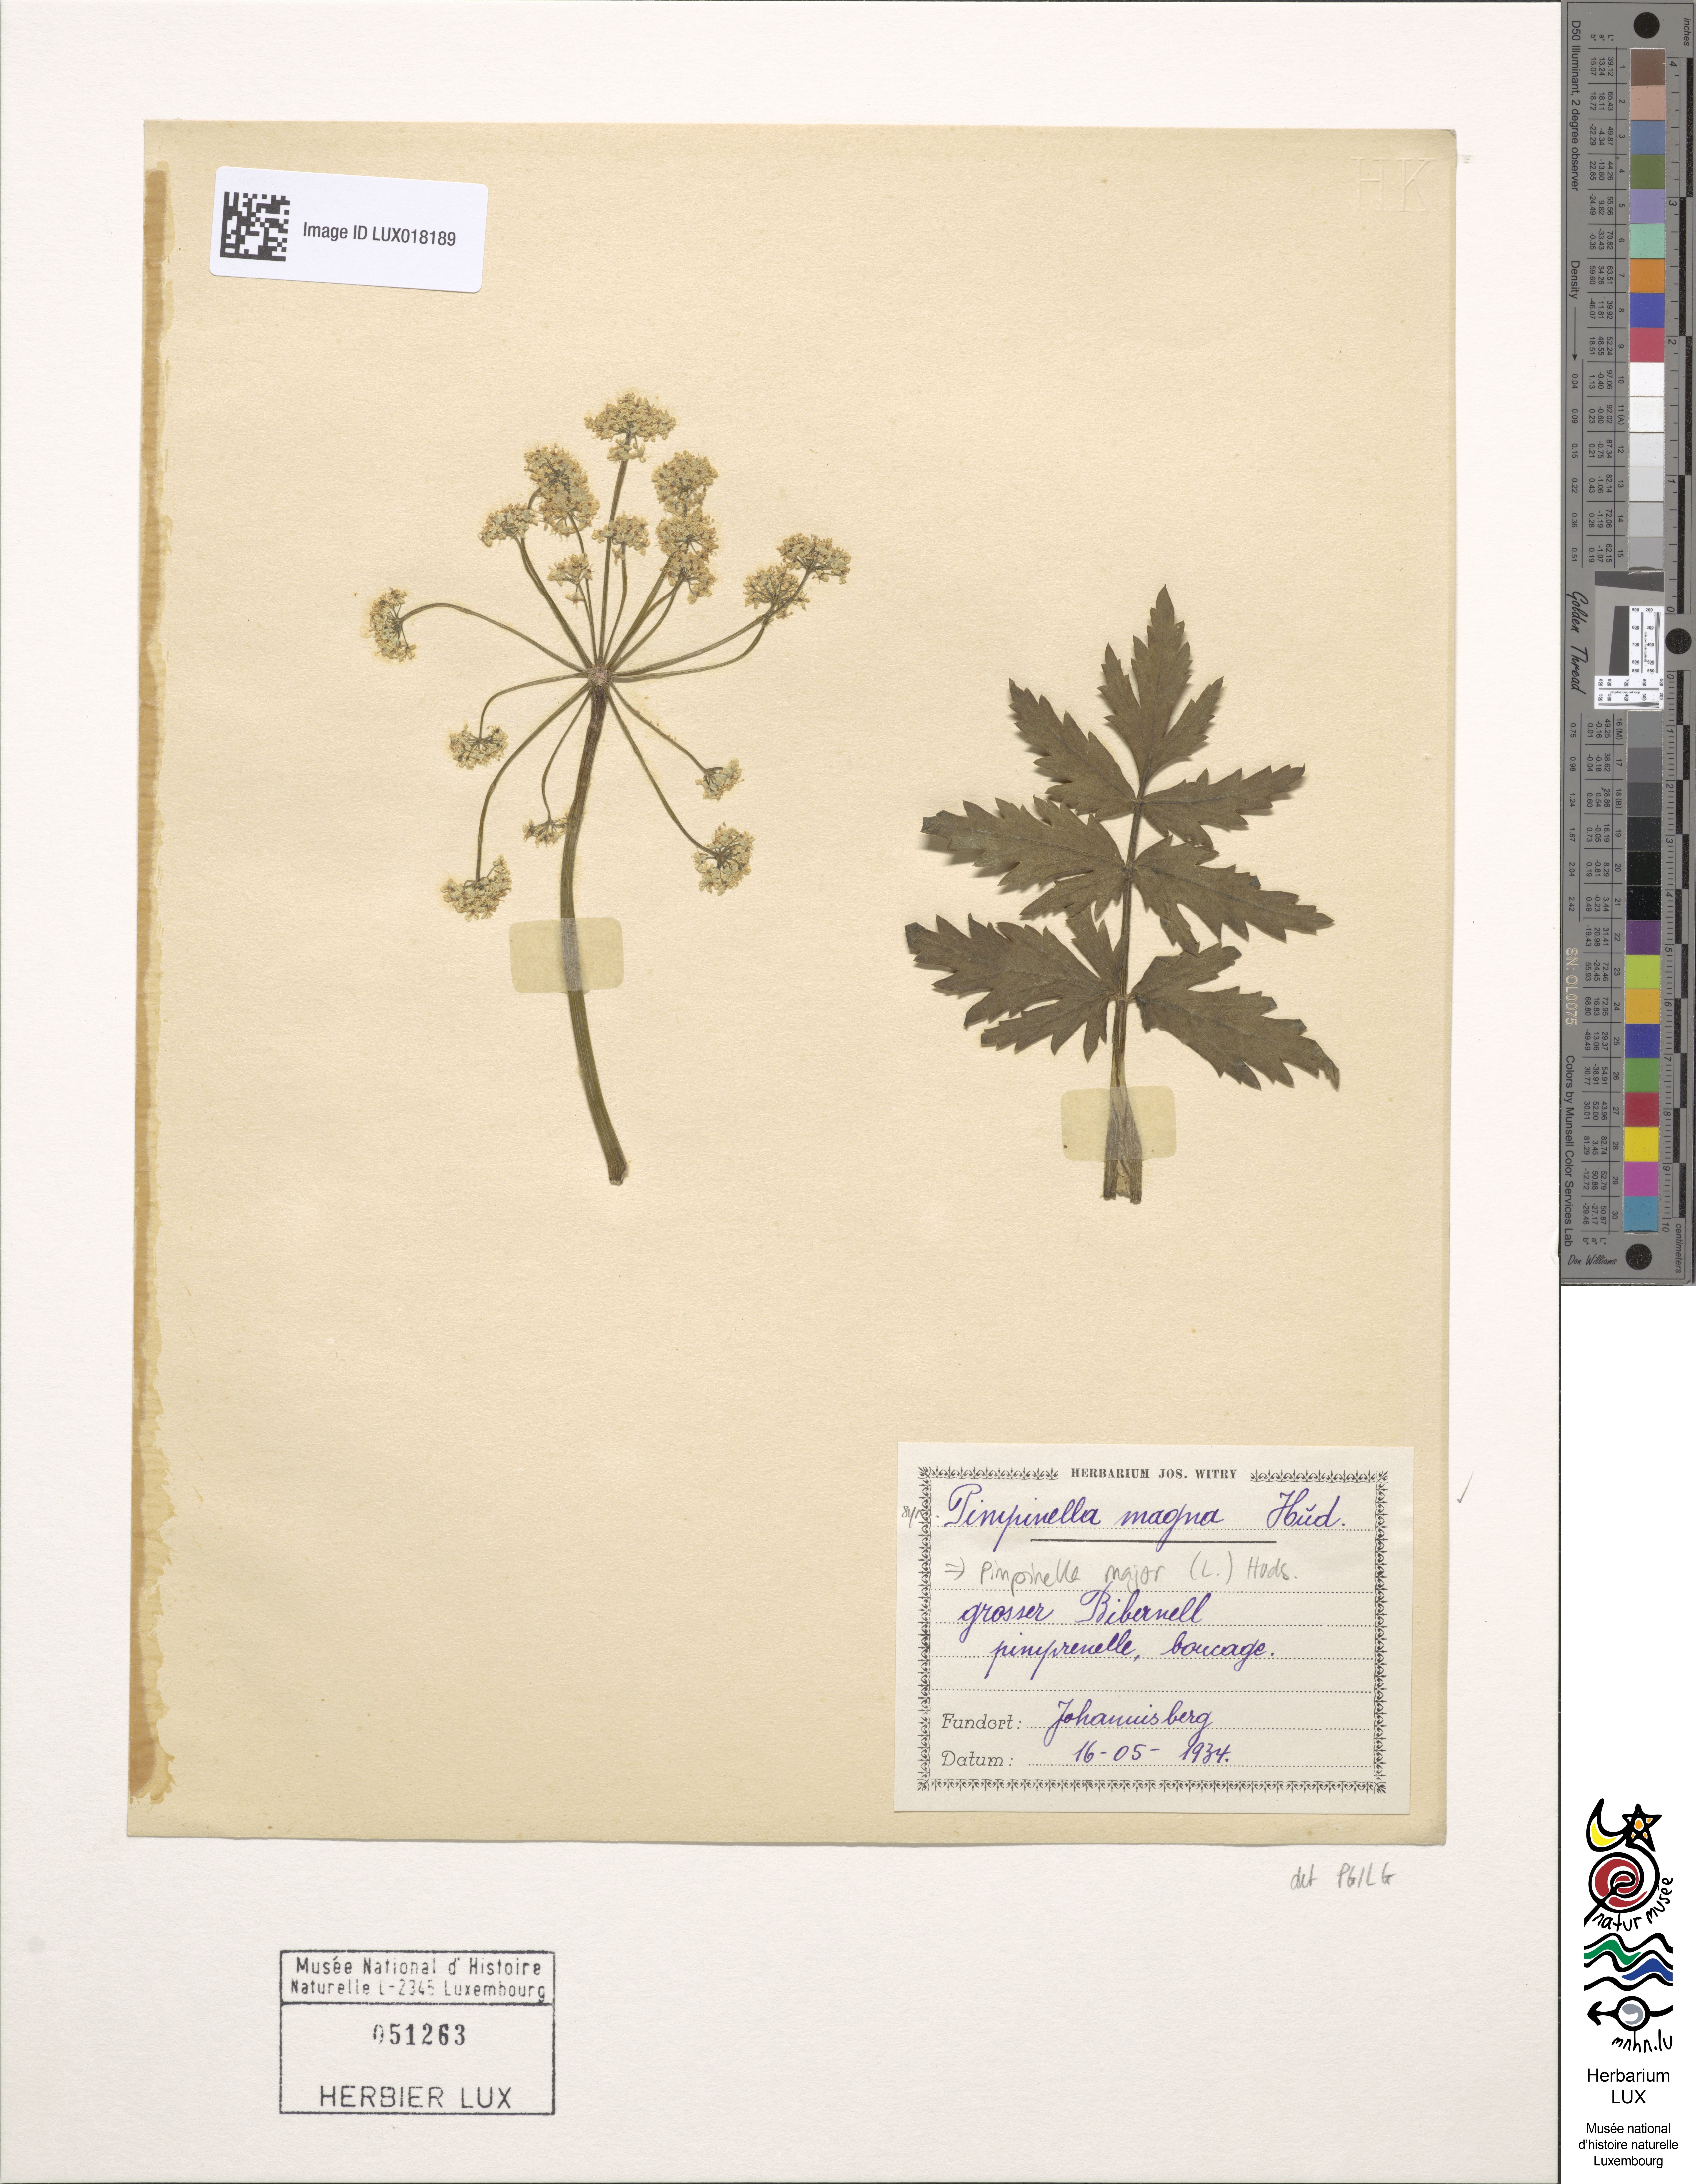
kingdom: Plantae
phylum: Tracheophyta
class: Magnoliopsida
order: Apiales
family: Apiaceae
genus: Pimpinella
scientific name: Pimpinella major
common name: Greater burnet-saxifrage
